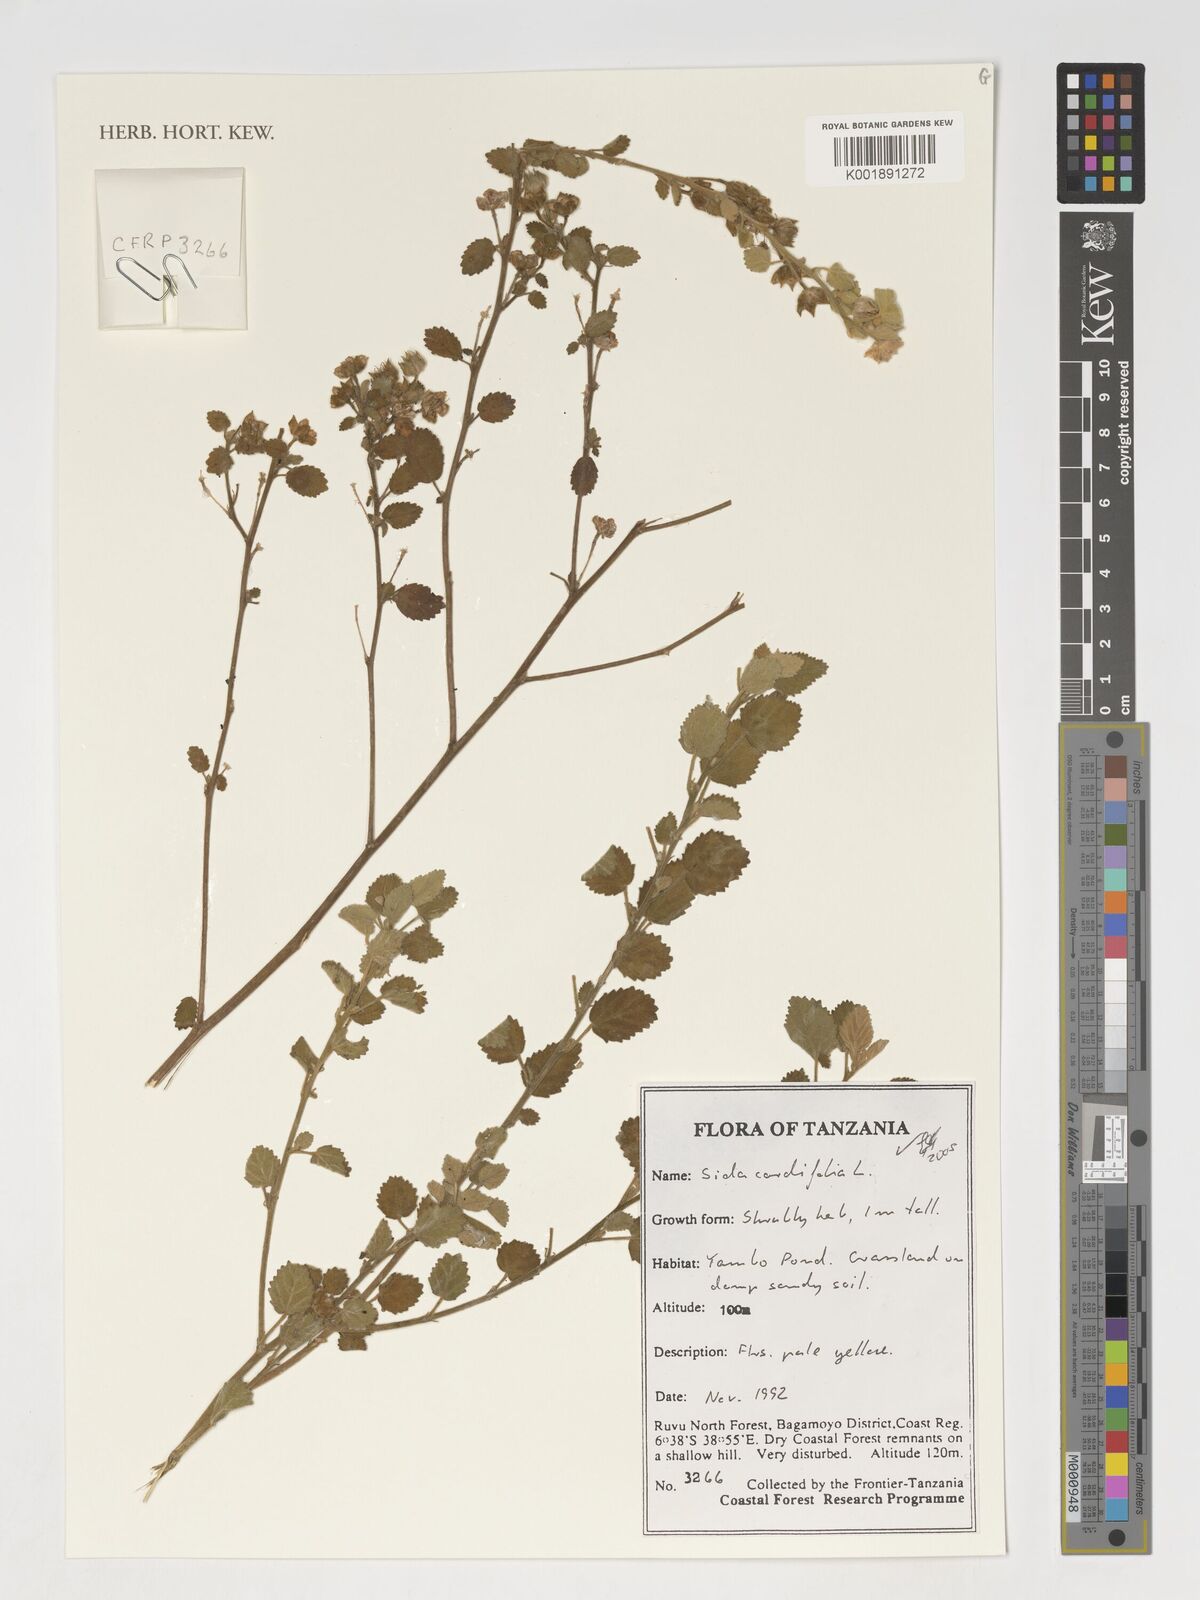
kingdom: Plantae
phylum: Tracheophyta
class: Magnoliopsida
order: Malvales
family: Malvaceae
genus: Sida
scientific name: Sida cordifolia
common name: Ilima
